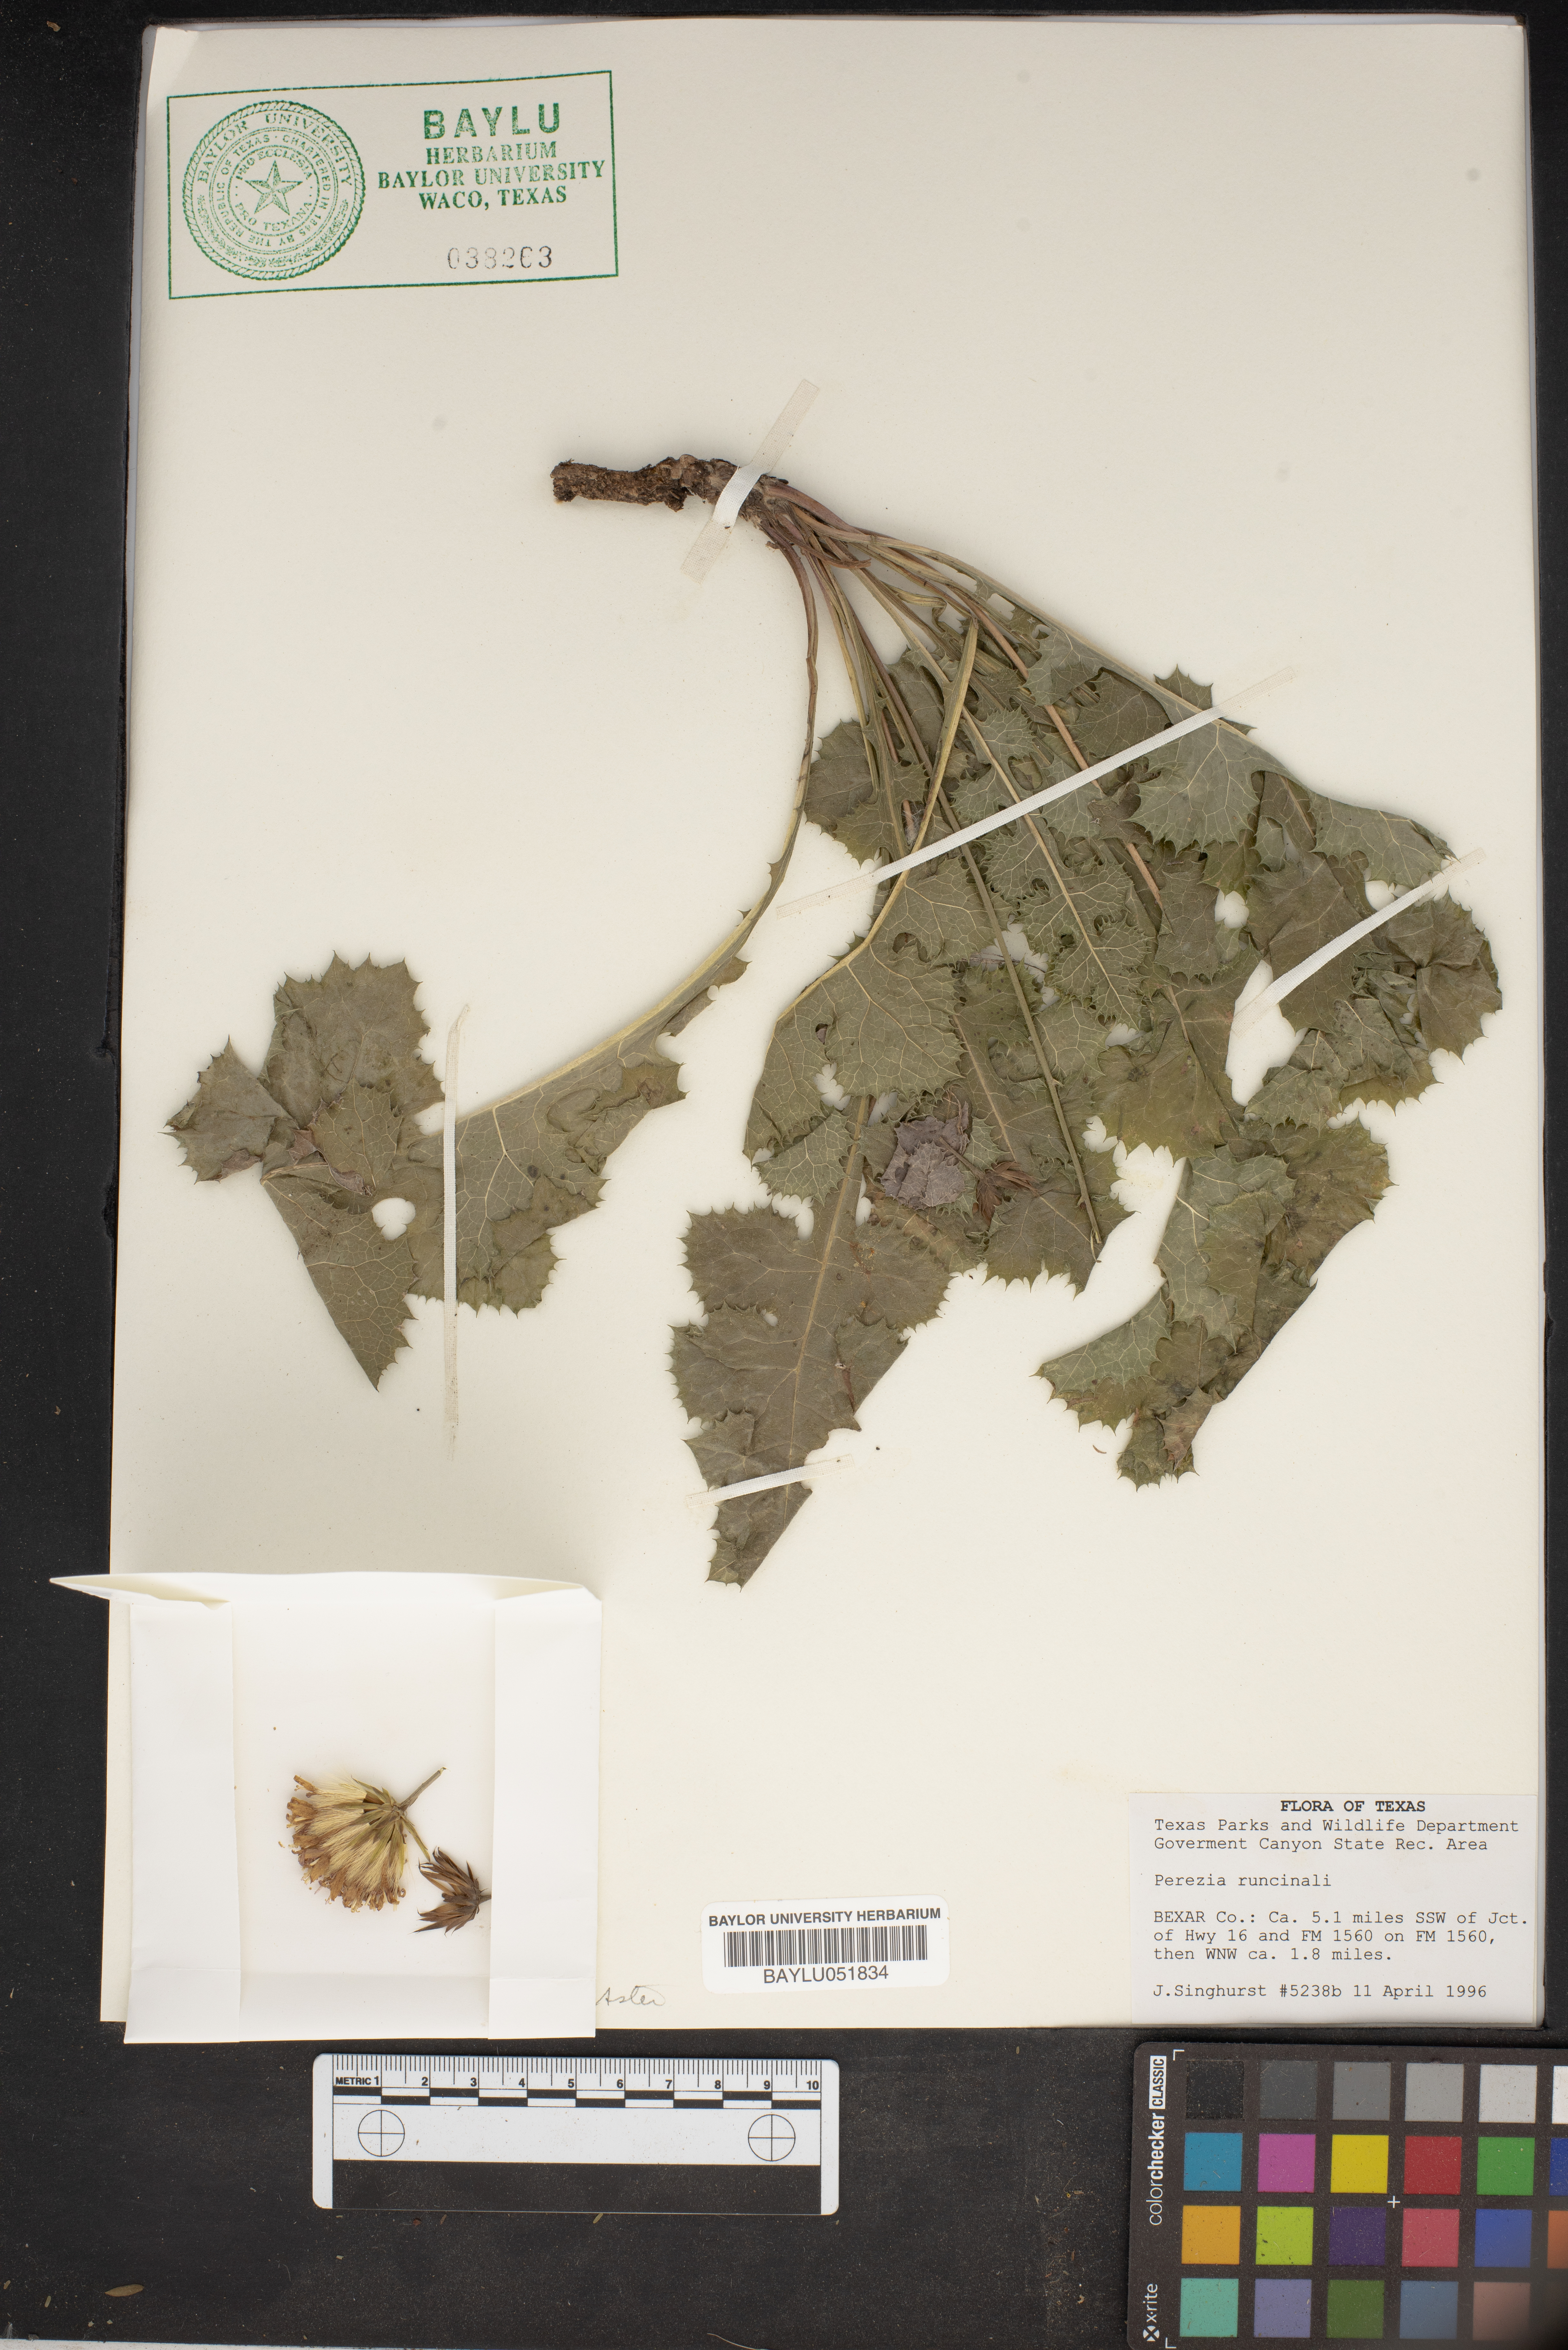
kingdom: Plantae
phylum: Tracheophyta
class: Magnoliopsida
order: Asterales
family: Asteraceae
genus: Acourtia
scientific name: Acourtia runcinata
